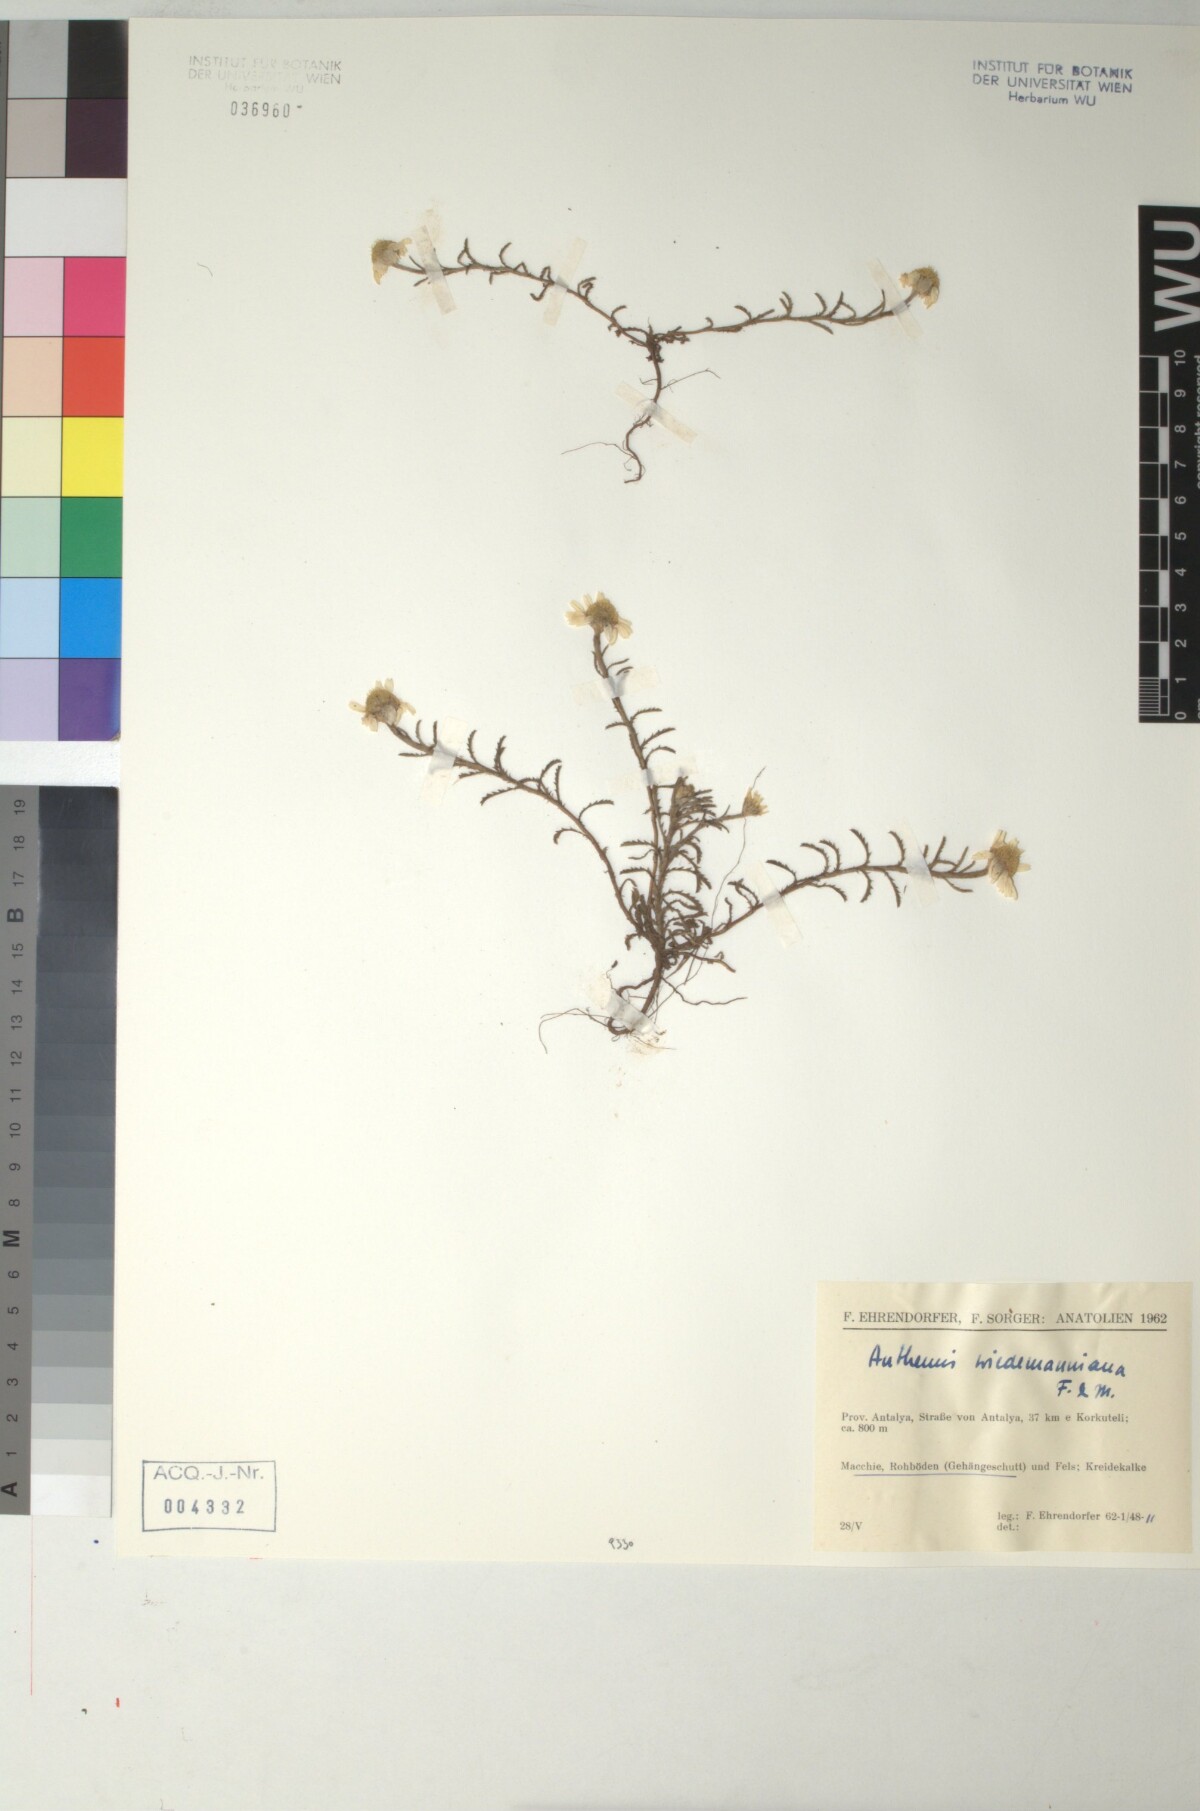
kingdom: Plantae
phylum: Tracheophyta
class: Magnoliopsida
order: Asterales
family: Asteraceae
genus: Cota
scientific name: Cota wiedemanniana
